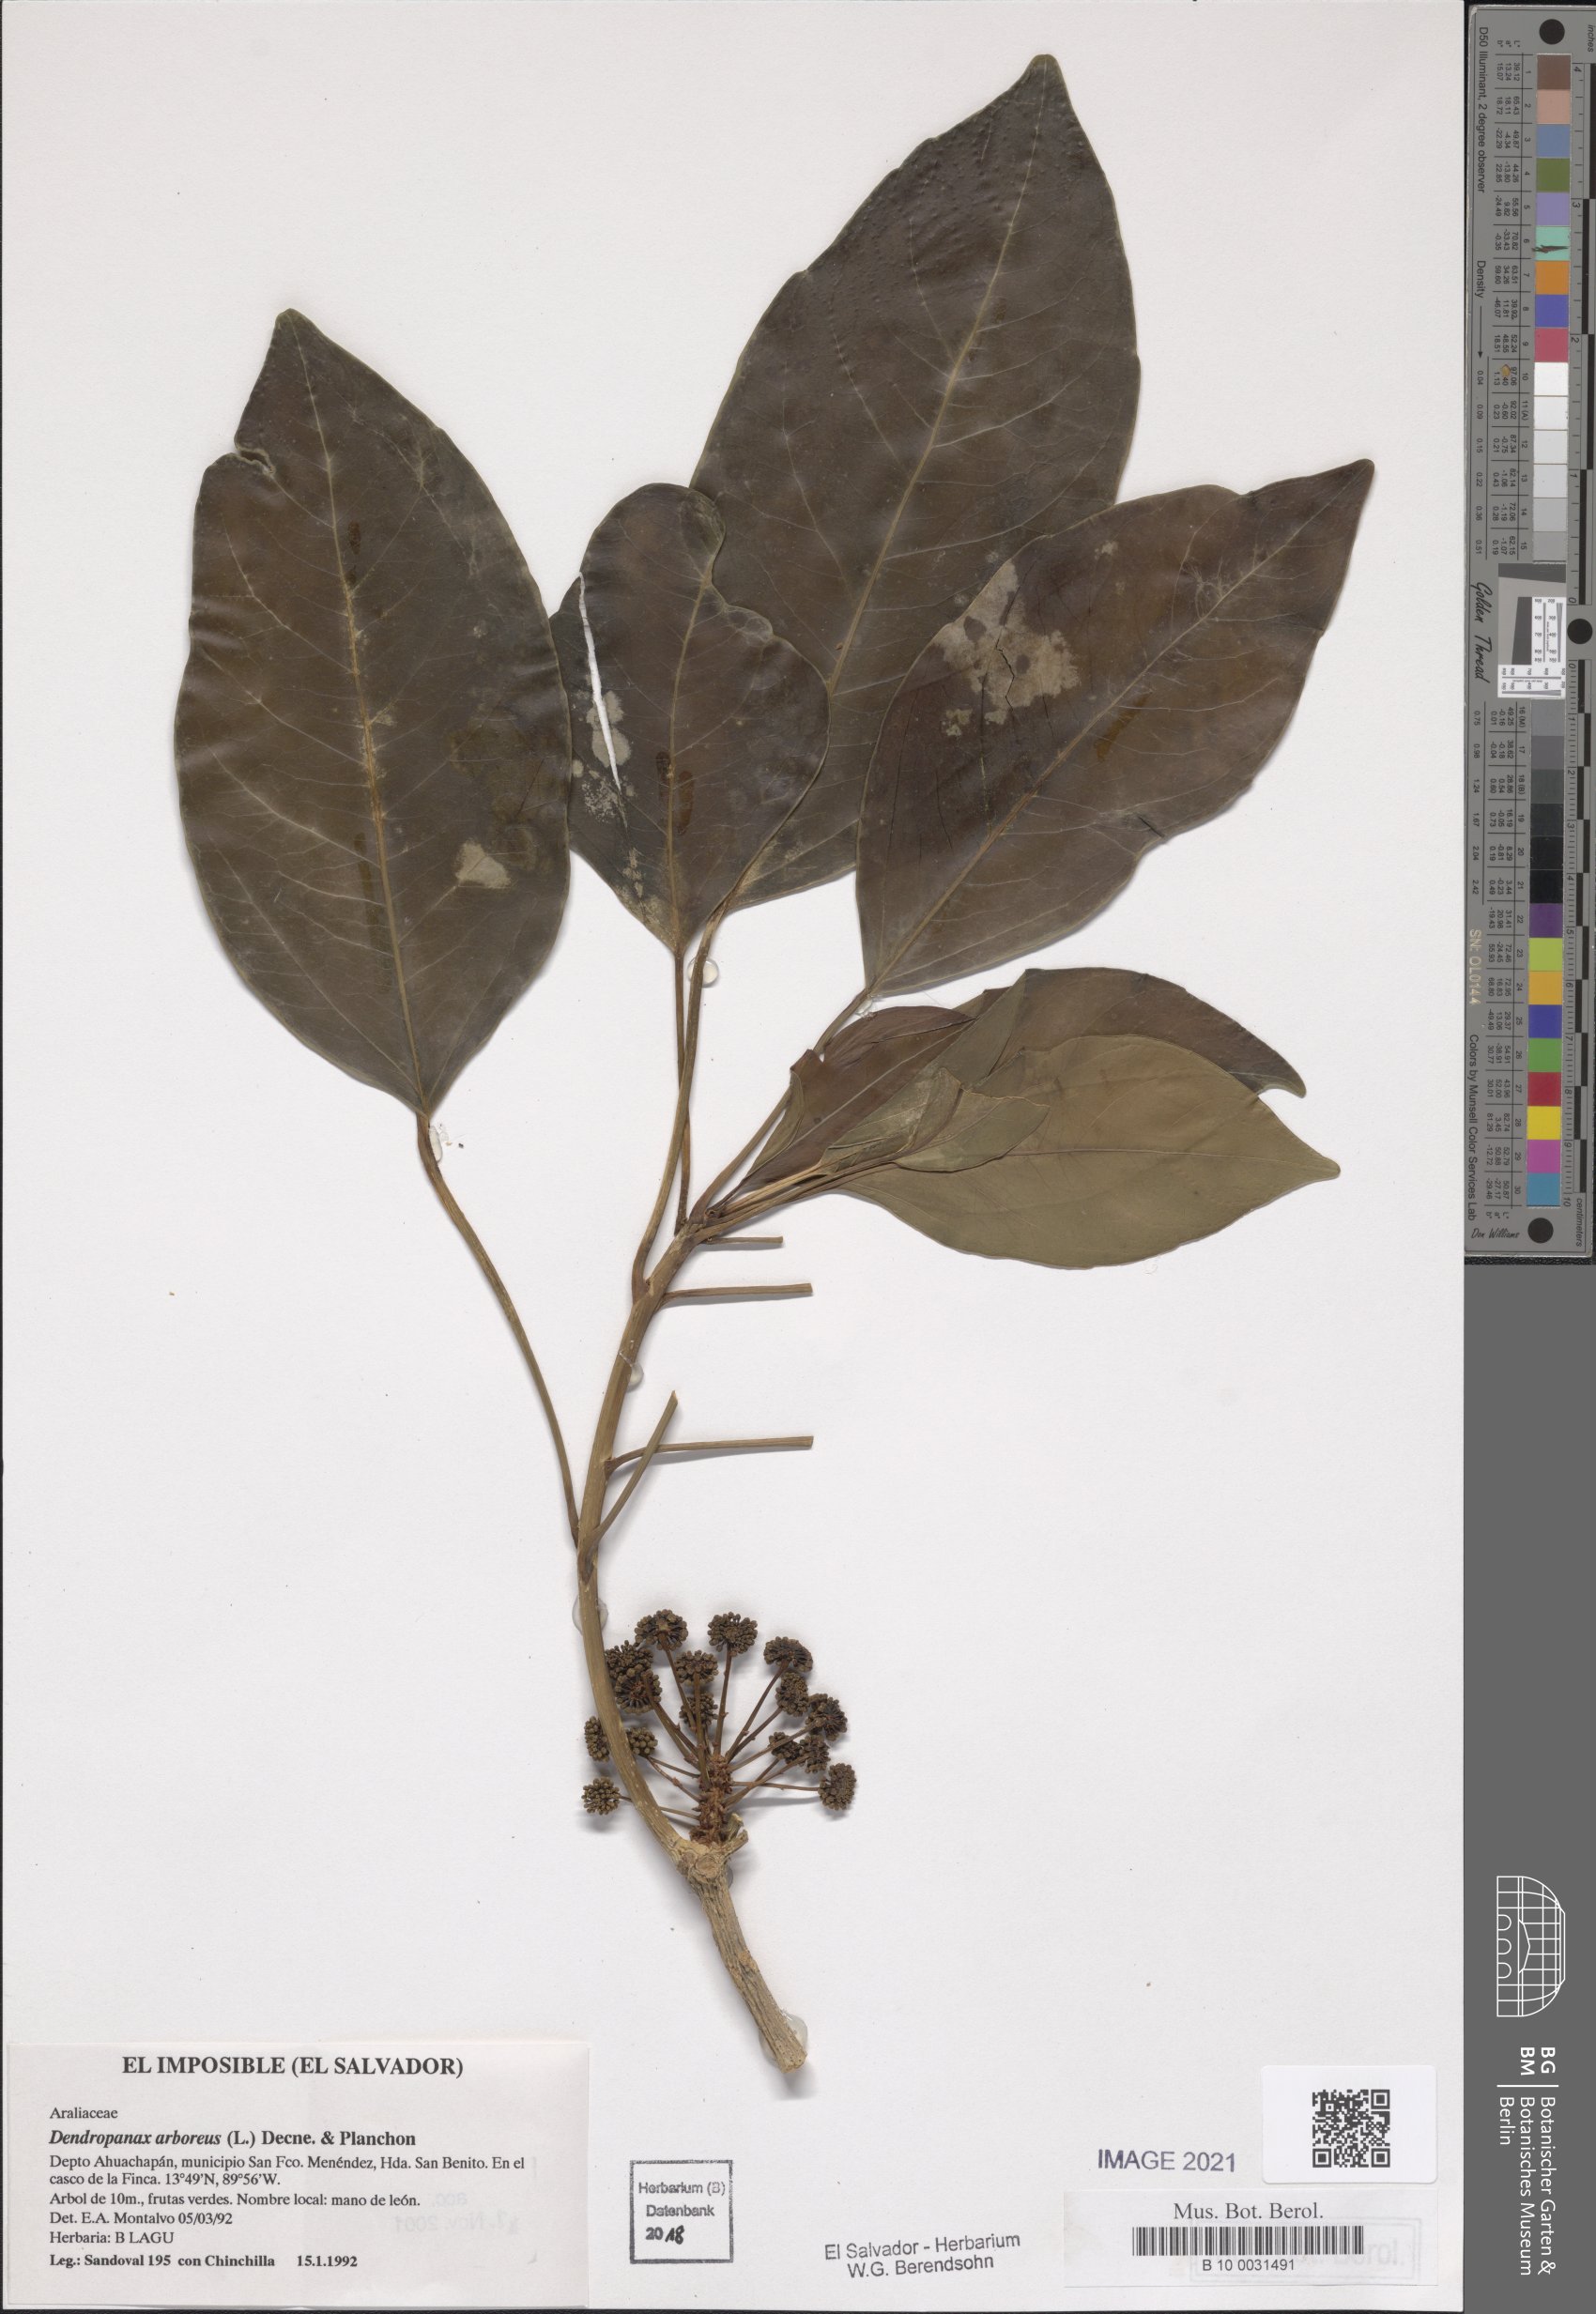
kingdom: Plantae
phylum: Tracheophyta
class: Magnoliopsida
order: Apiales
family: Araliaceae
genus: Dendropanax
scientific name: Dendropanax arboreus
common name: Potato-wood
